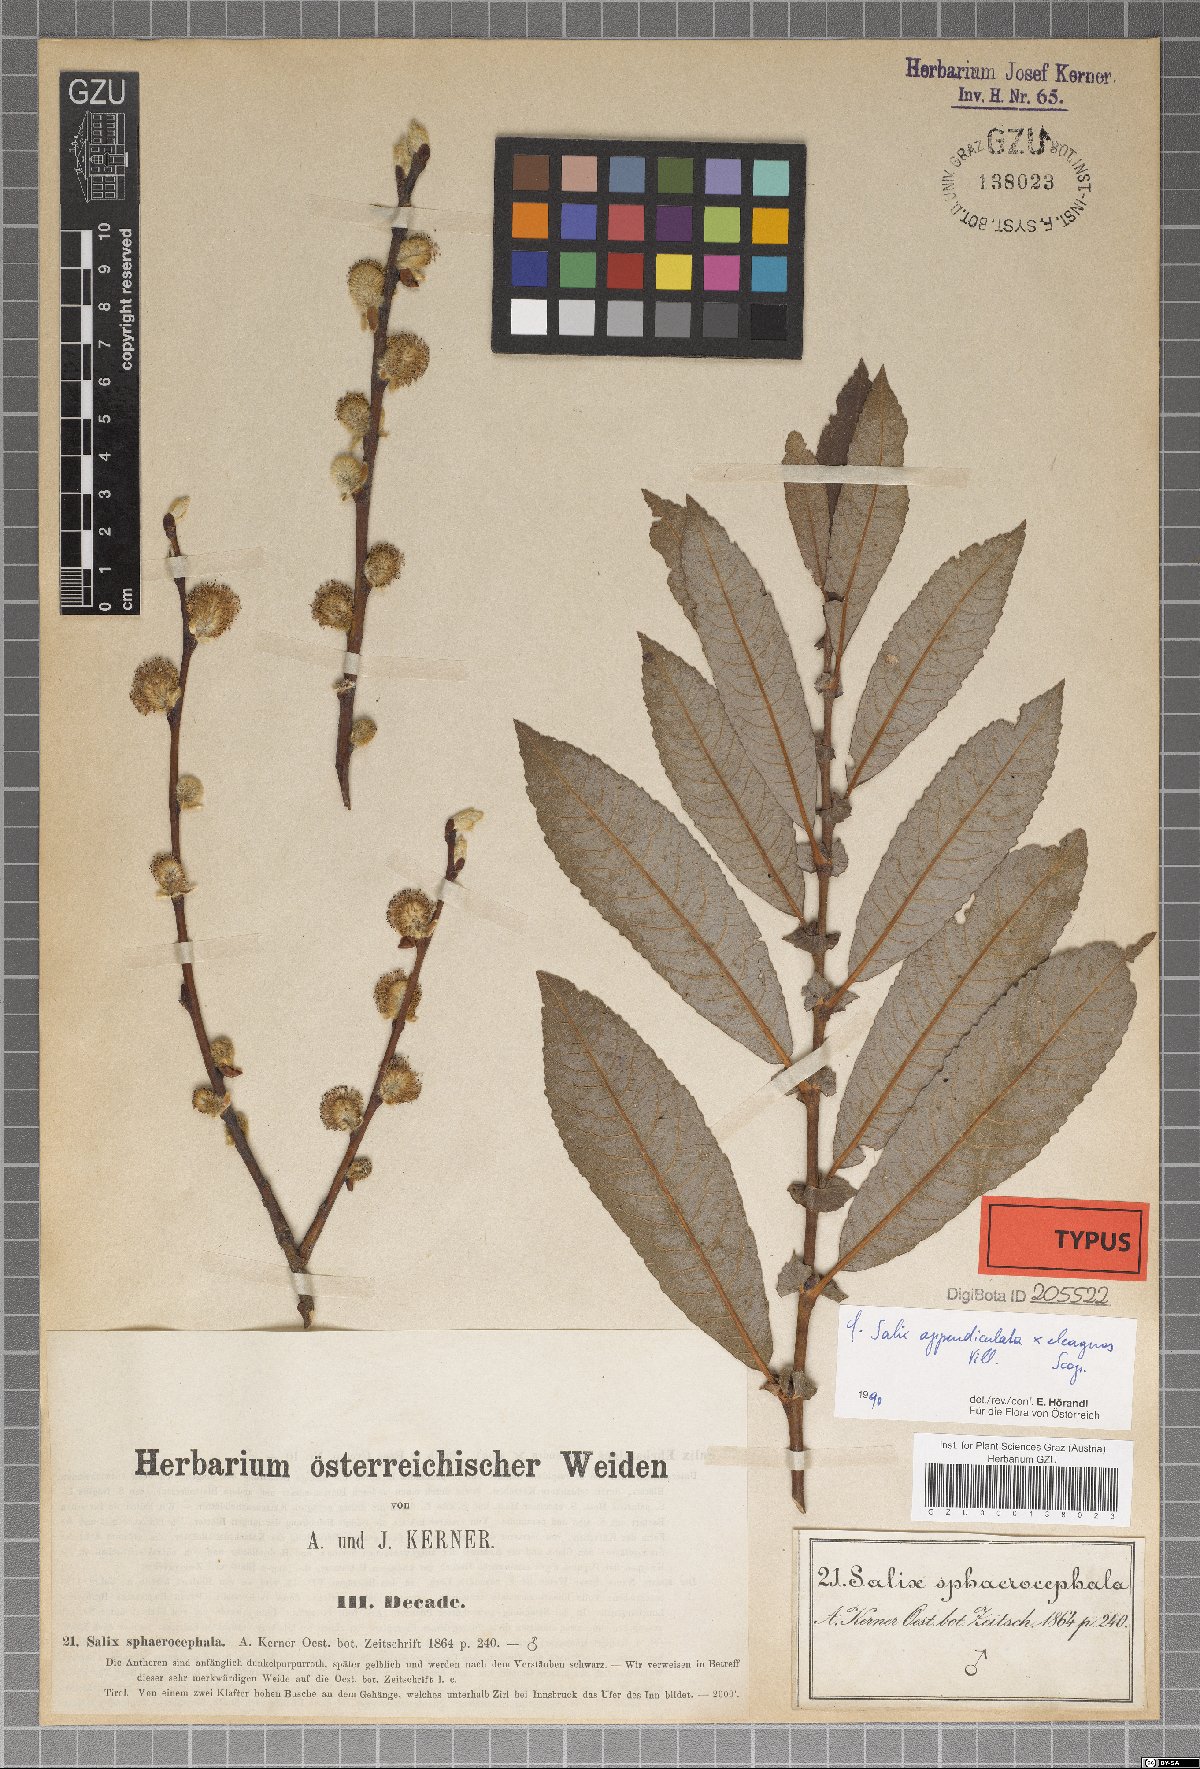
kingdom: Plantae
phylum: Tracheophyta
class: Magnoliopsida
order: Malpighiales
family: Salicaceae
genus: Salix
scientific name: Salix purpurea
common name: Purple willow
